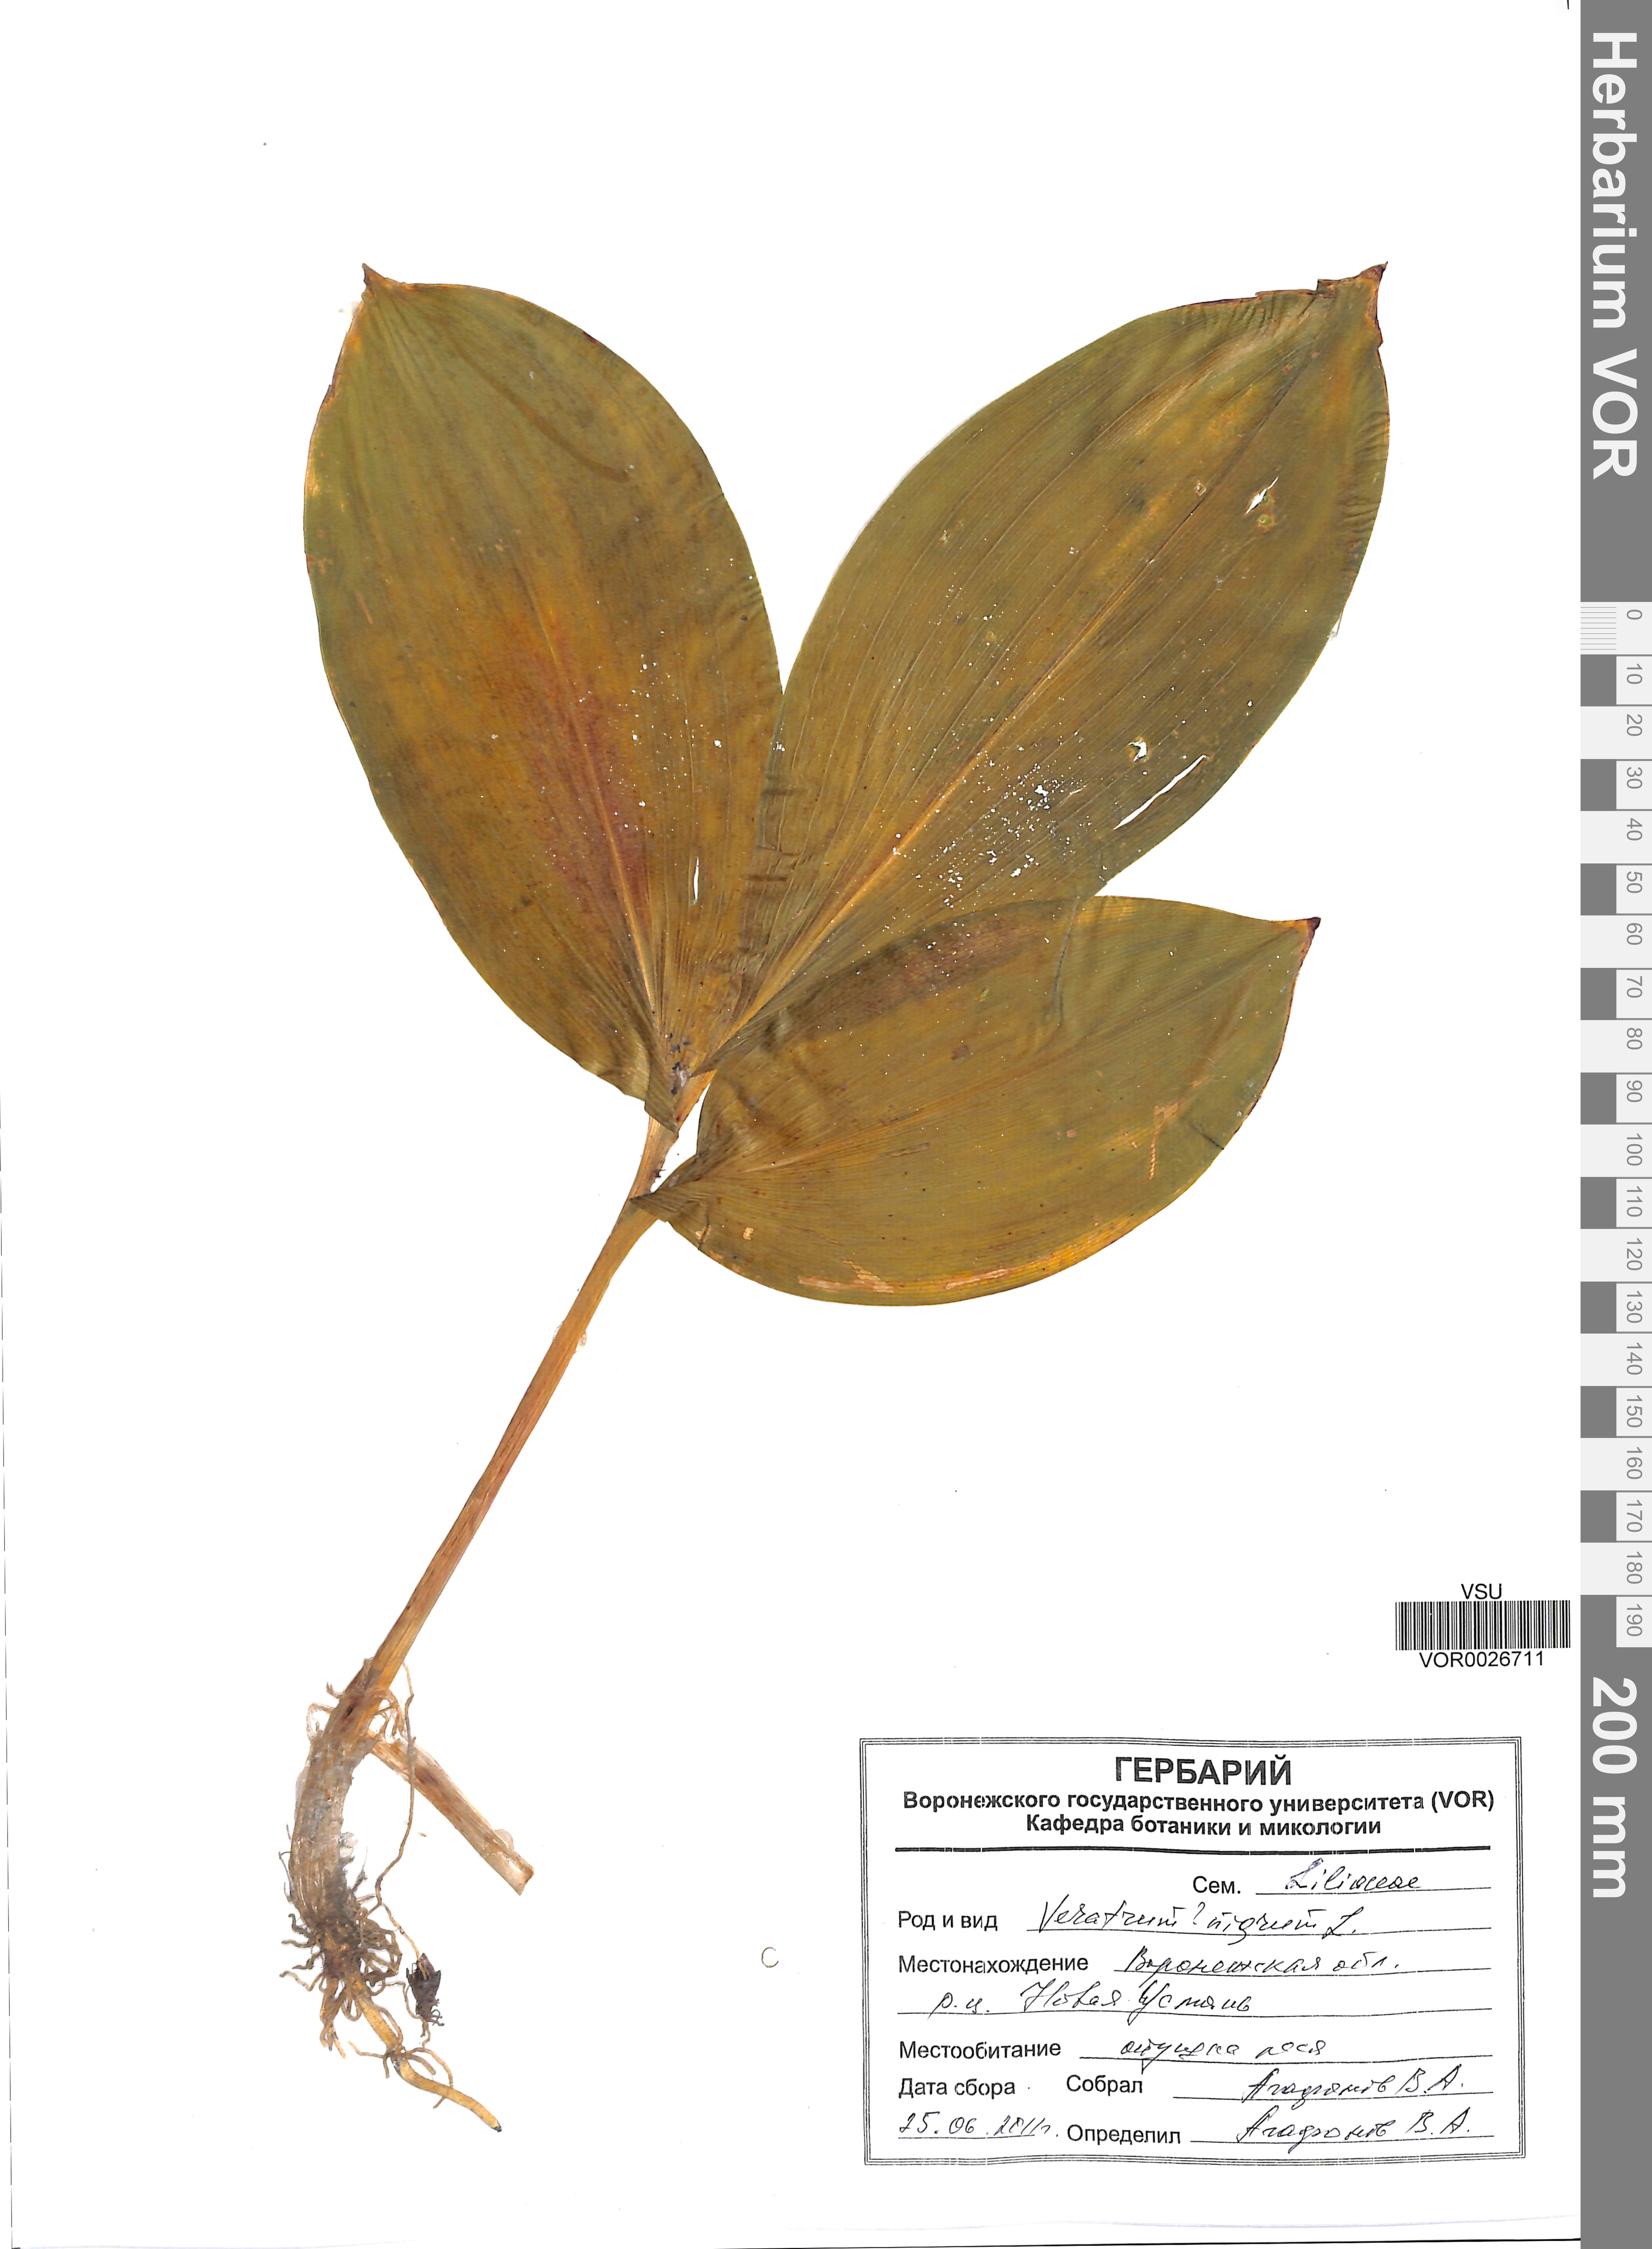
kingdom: Plantae
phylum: Tracheophyta
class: Liliopsida
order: Liliales
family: Melanthiaceae
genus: Veratrum
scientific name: Veratrum nigrum
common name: Black veratrum
